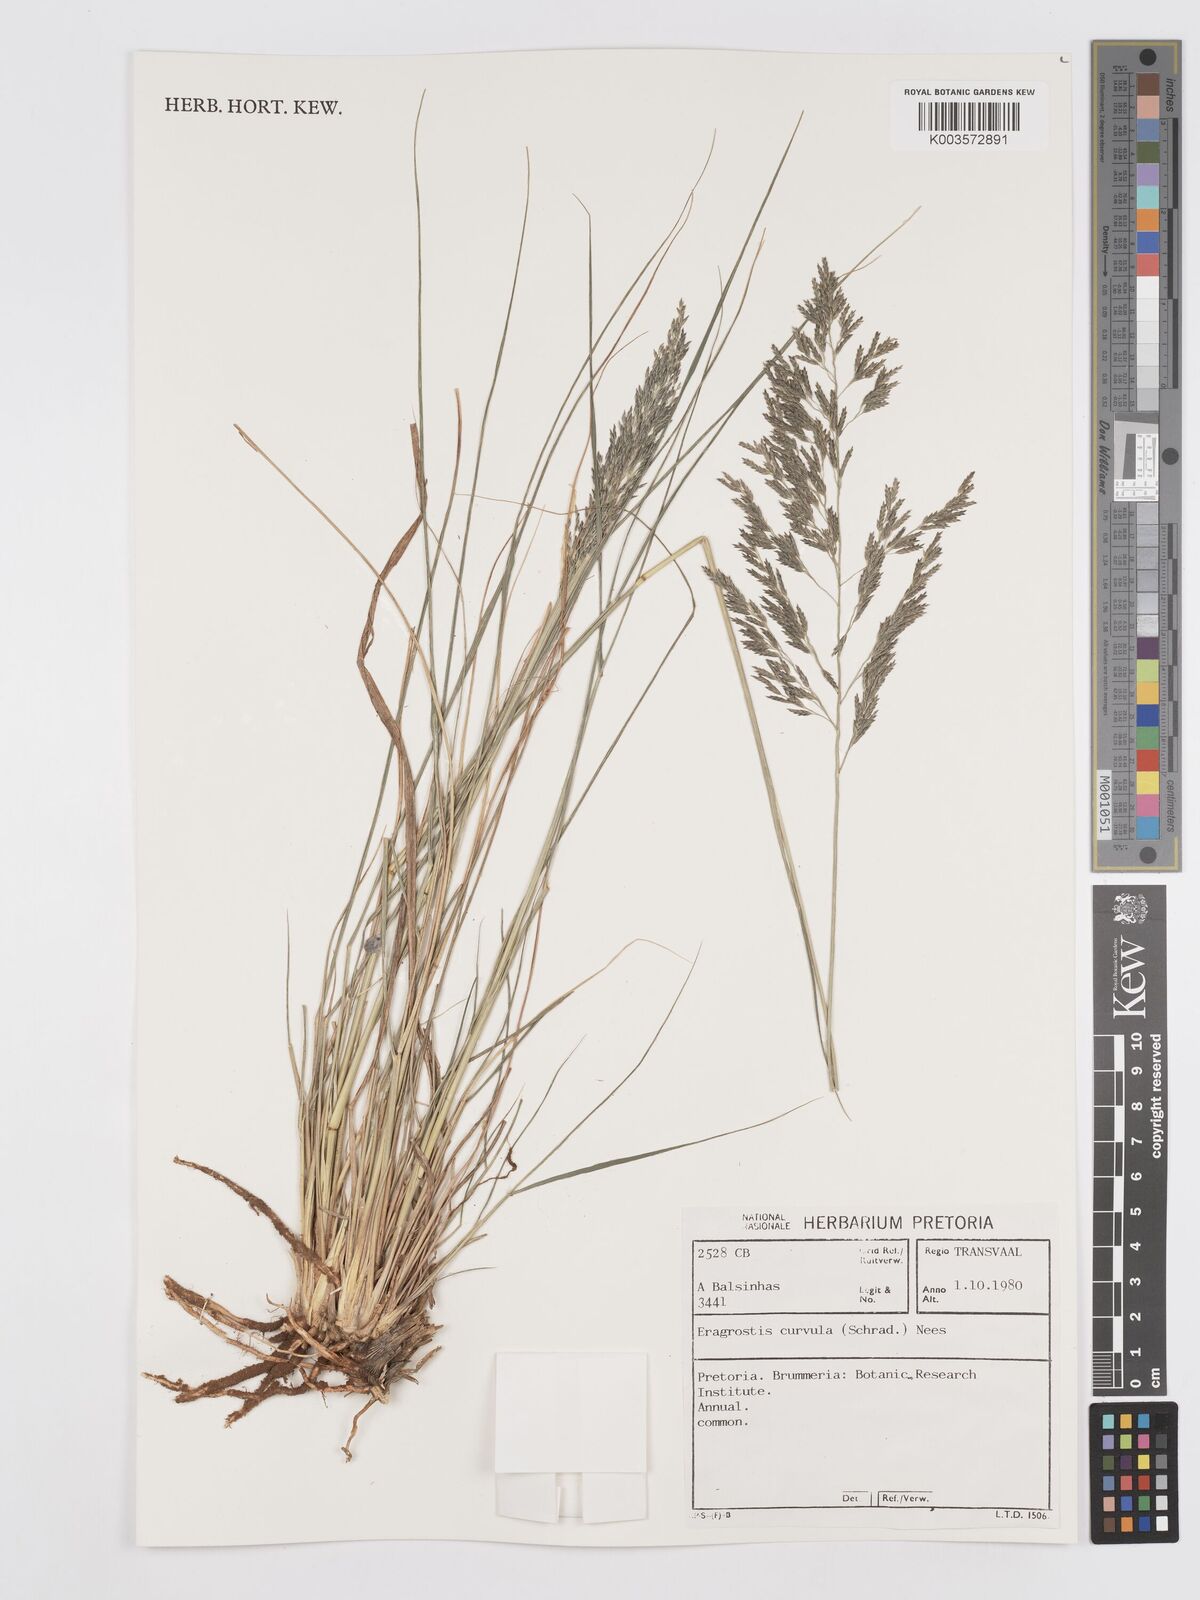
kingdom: Plantae
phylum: Tracheophyta
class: Liliopsida
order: Poales
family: Poaceae
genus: Eragrostis
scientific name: Eragrostis curvula
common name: African love-grass
